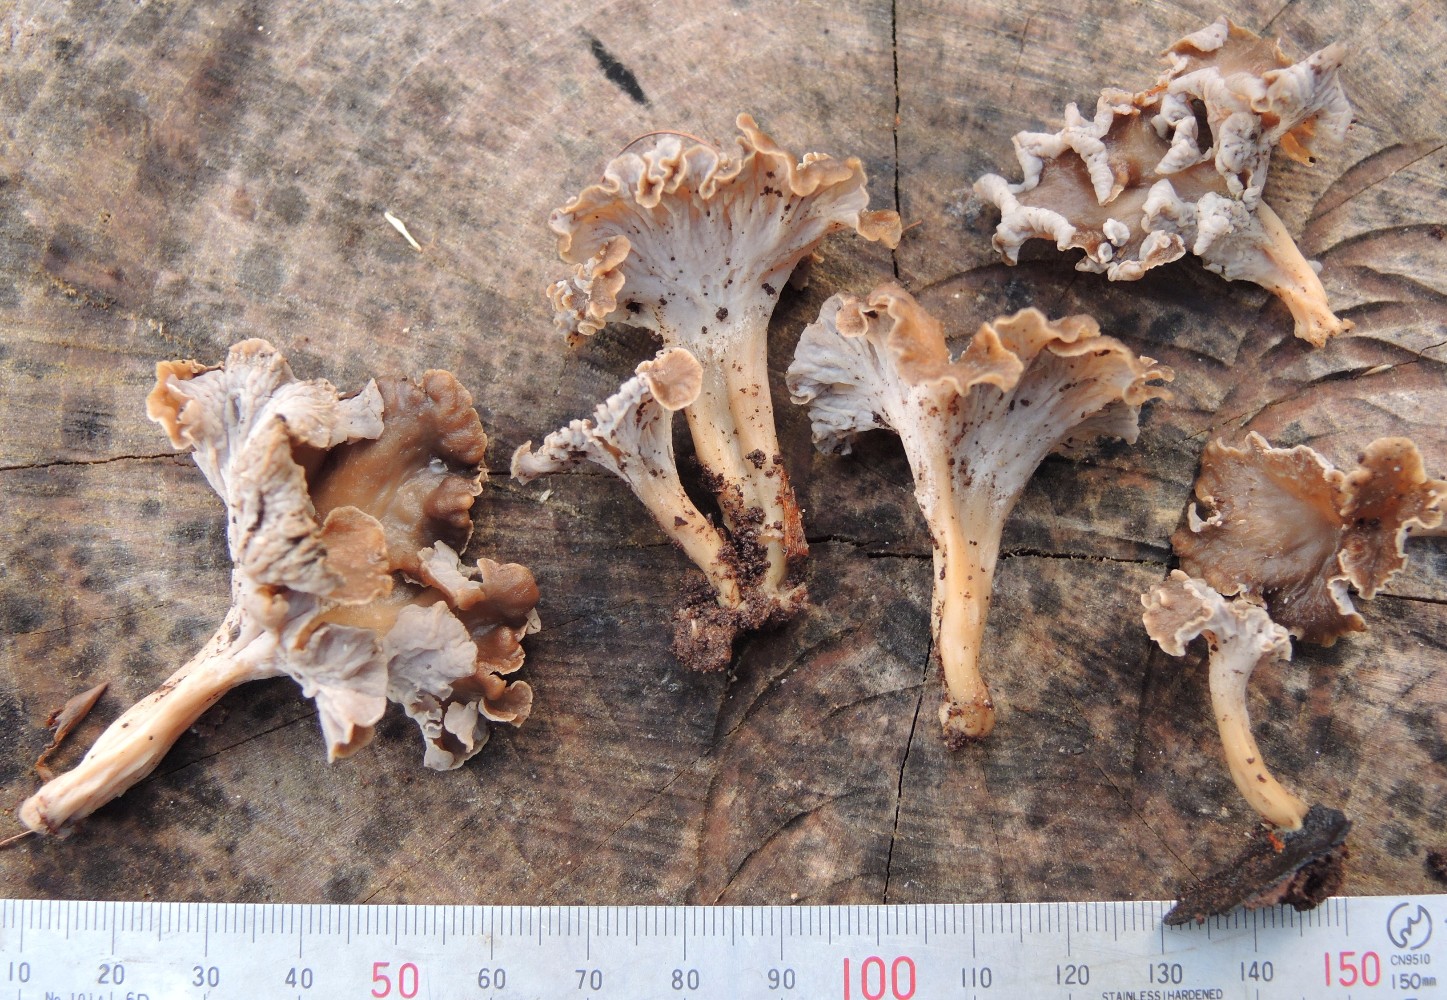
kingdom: Fungi
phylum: Basidiomycota
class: Agaricomycetes
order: Cantharellales
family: Hydnaceae
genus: Craterellus
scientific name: Craterellus undulatus
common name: liden kantarel
